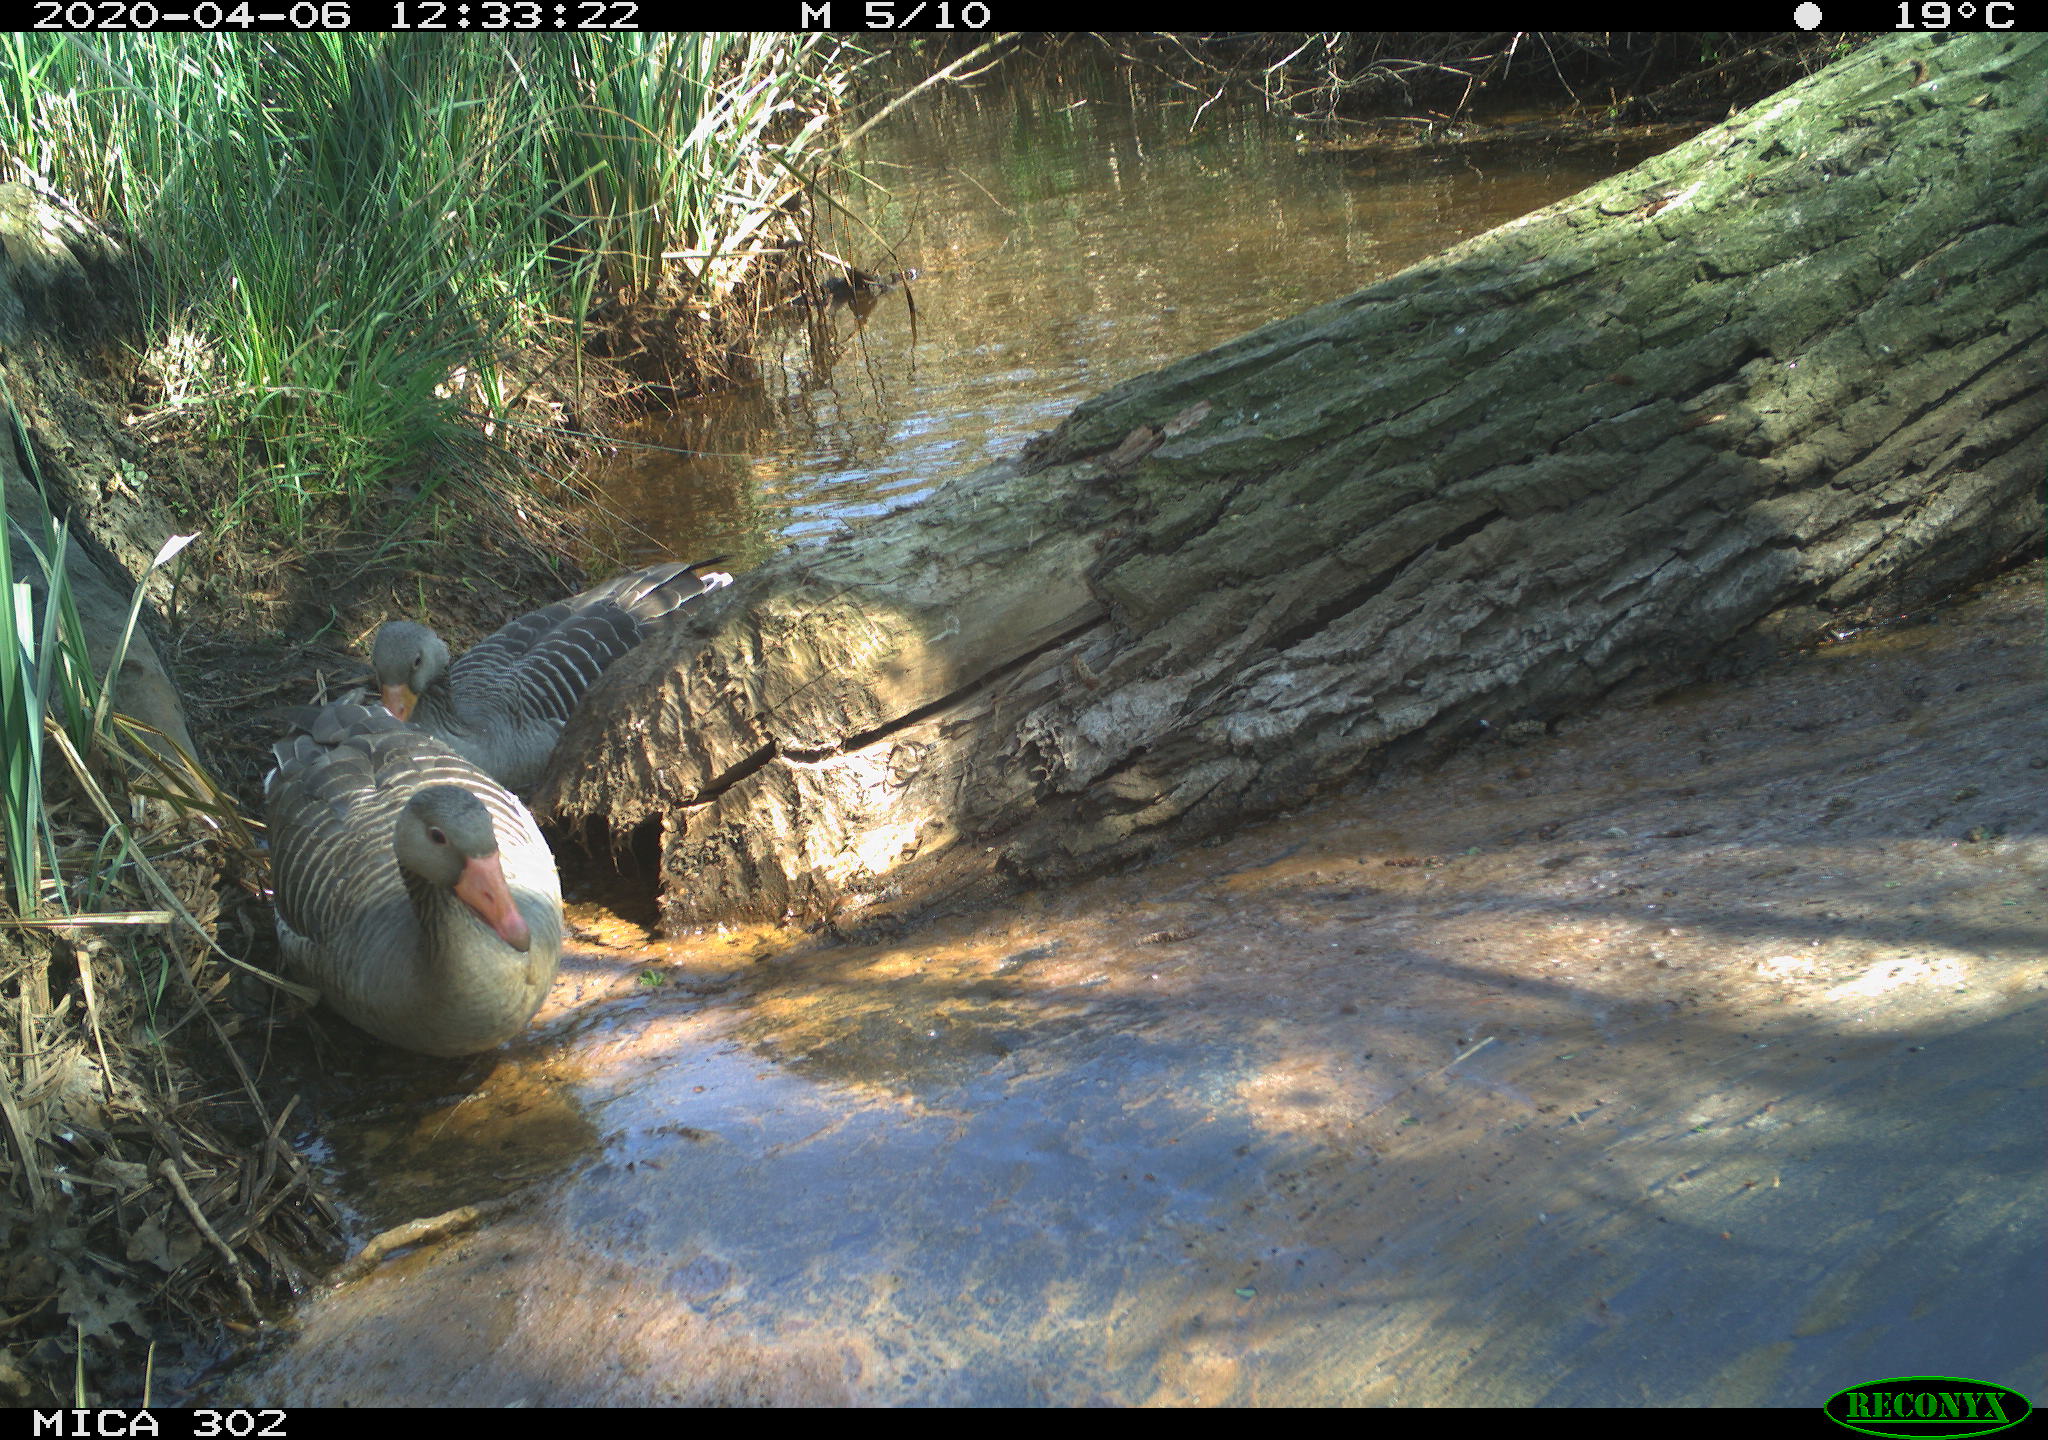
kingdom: Animalia
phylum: Chordata
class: Aves
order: Anseriformes
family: Anatidae
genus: Anser
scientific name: Anser anser
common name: Greylag goose
